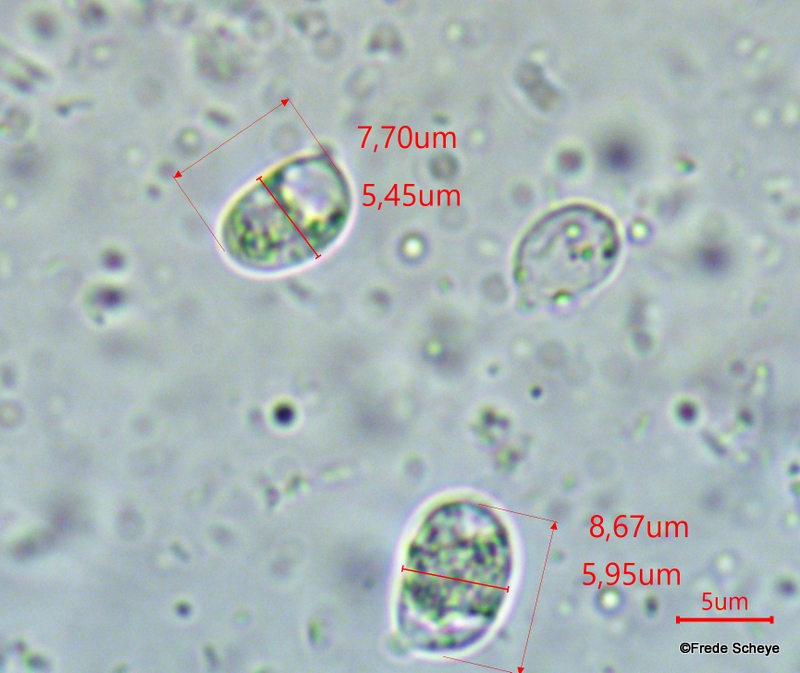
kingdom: Fungi
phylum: Basidiomycota
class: Agaricomycetes
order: Agaricales
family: Hygrophoraceae
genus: Hygrocybe
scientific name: Hygrocybe conica
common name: kegle-vokshat
